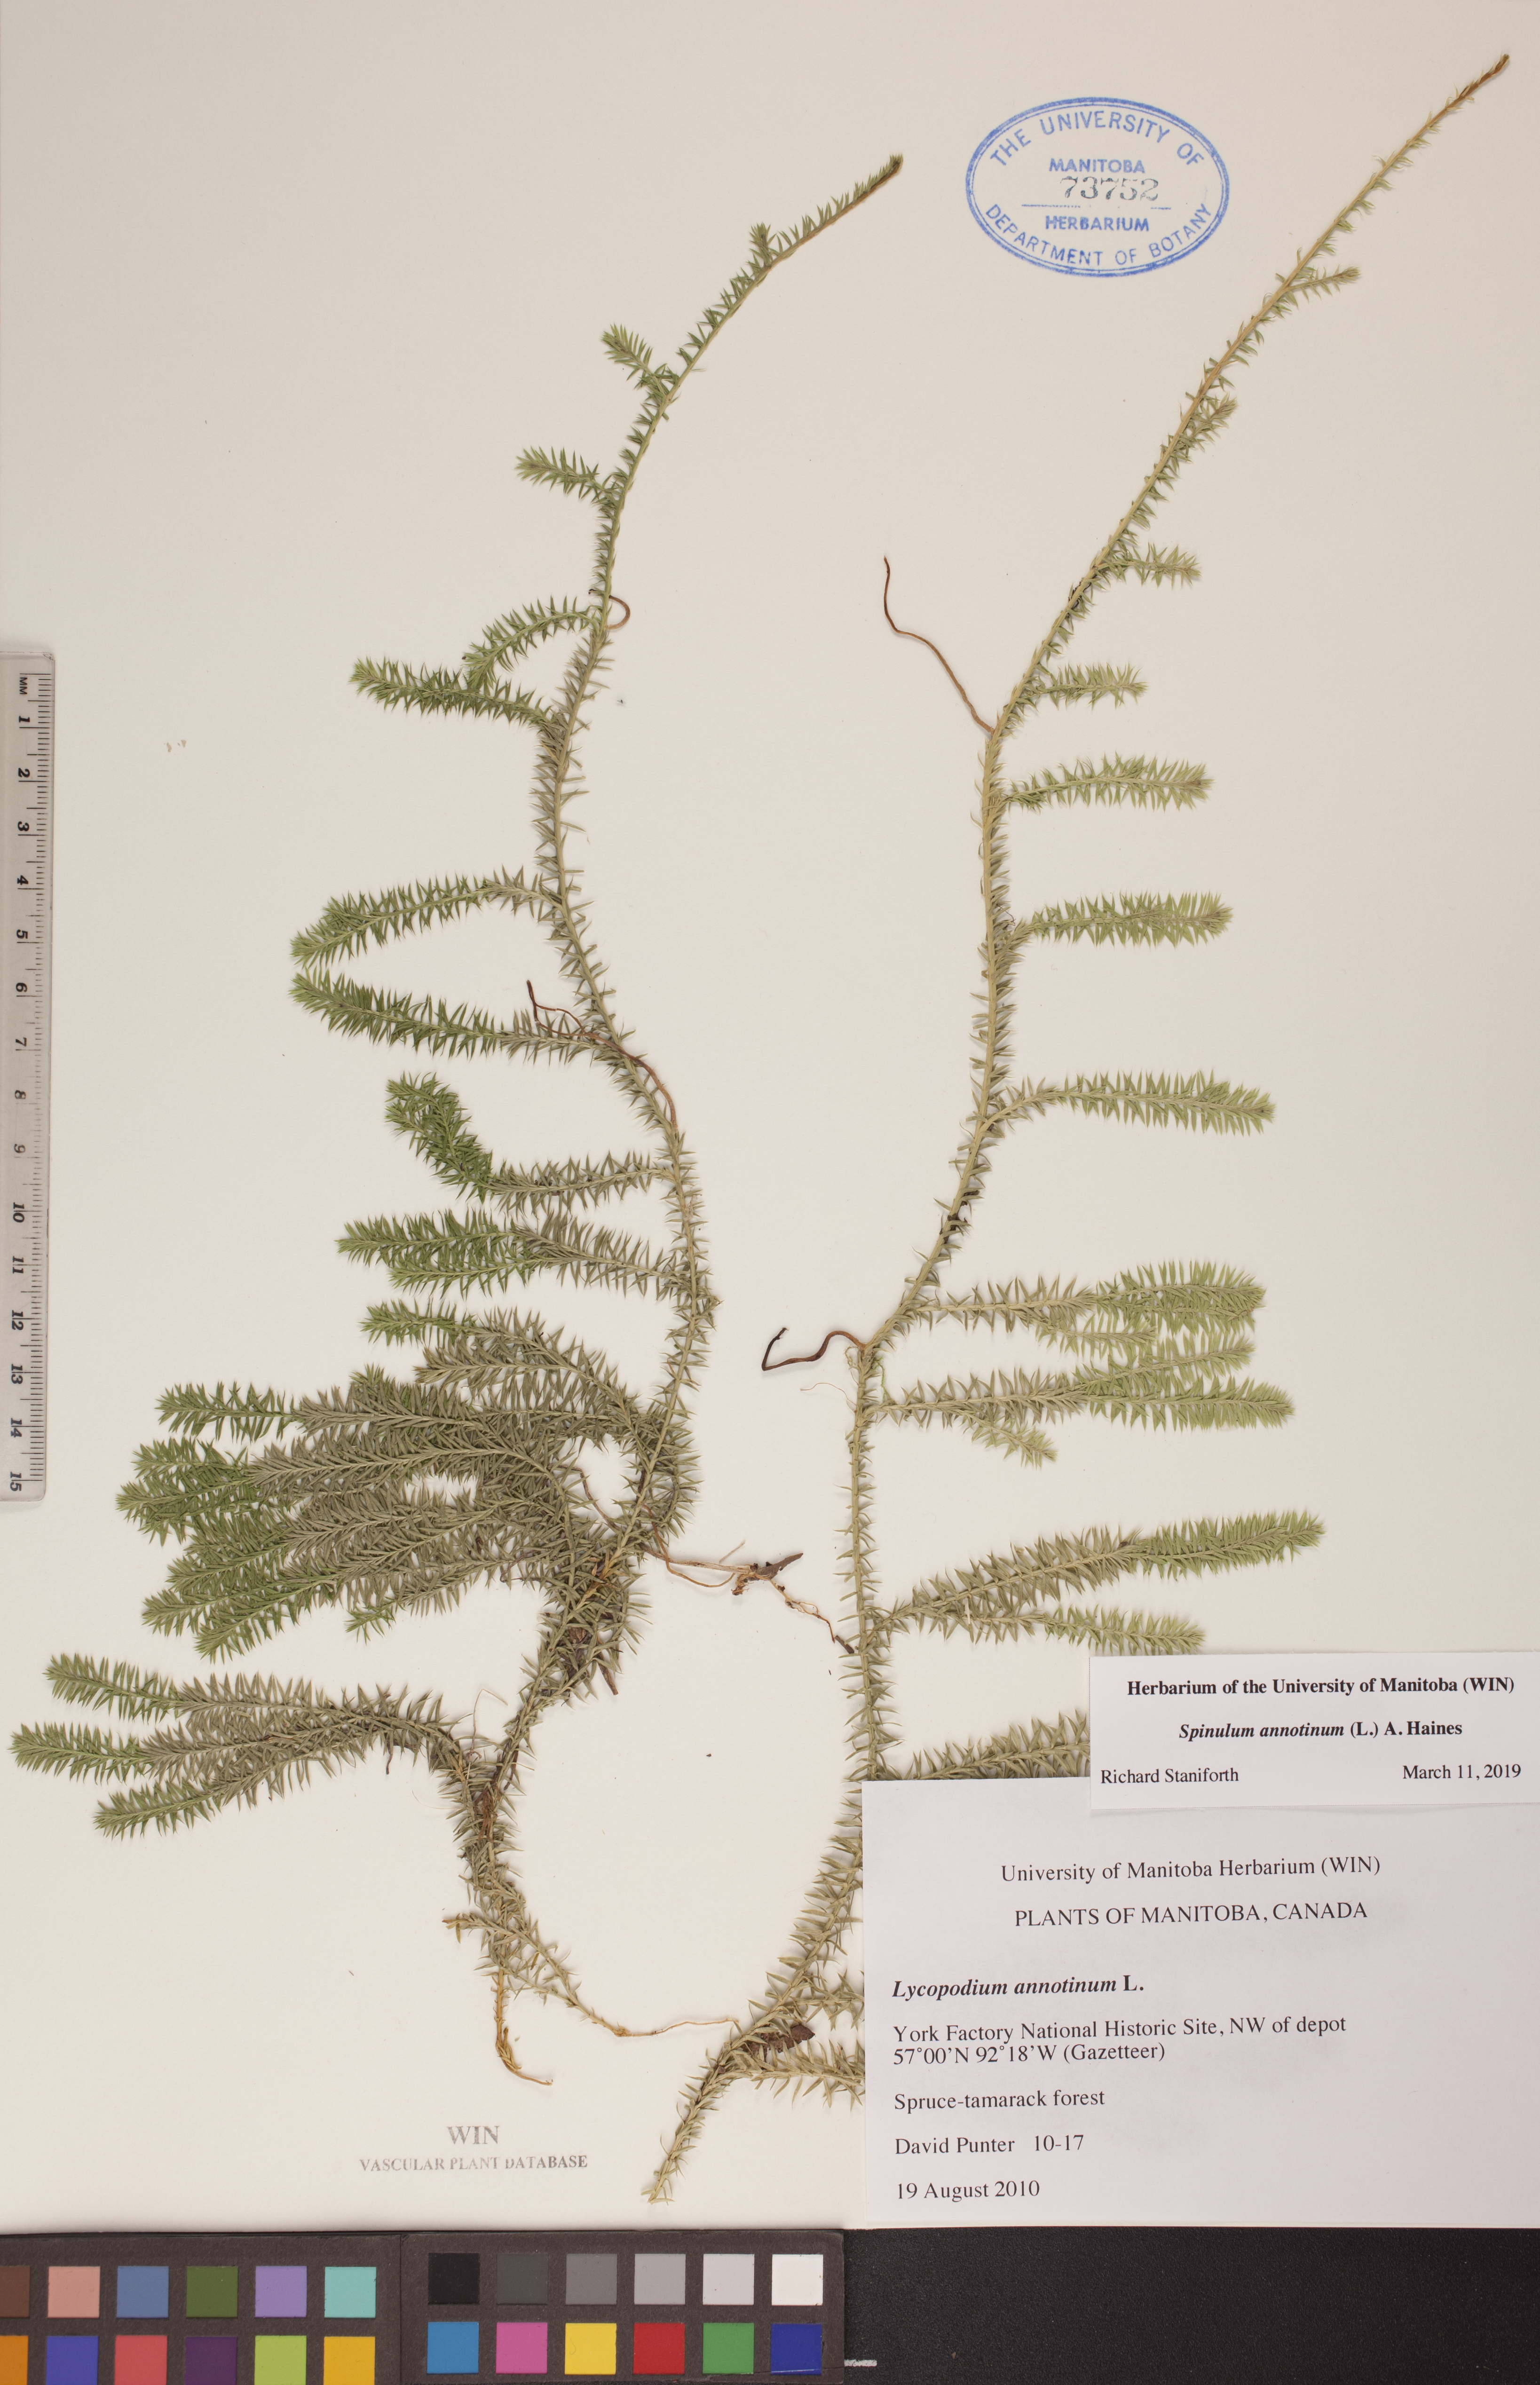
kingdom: Plantae
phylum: Tracheophyta
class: Lycopodiopsida
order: Lycopodiales
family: Lycopodiaceae
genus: Spinulum
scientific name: Spinulum annotinum
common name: Interrupted club-moss
